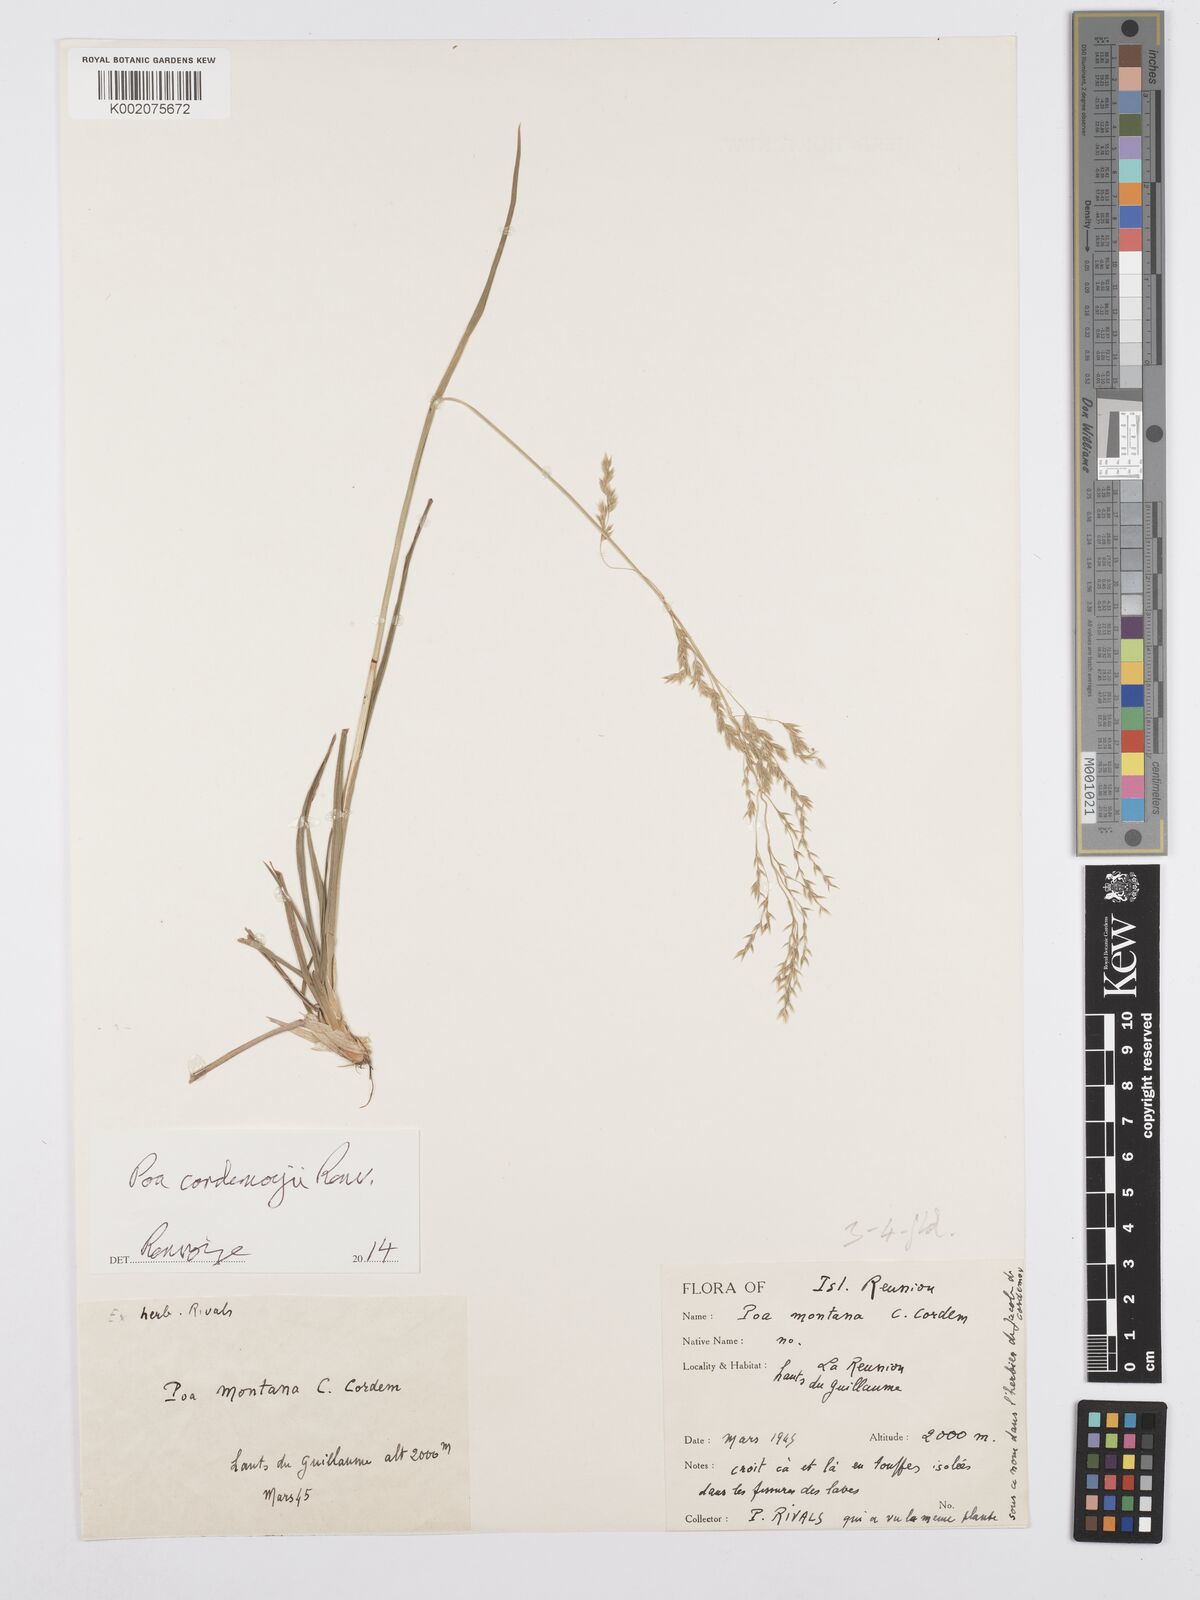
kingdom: Plantae
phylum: Tracheophyta
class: Liliopsida
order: Poales
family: Poaceae
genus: Poa
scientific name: Poa cordemoyi
